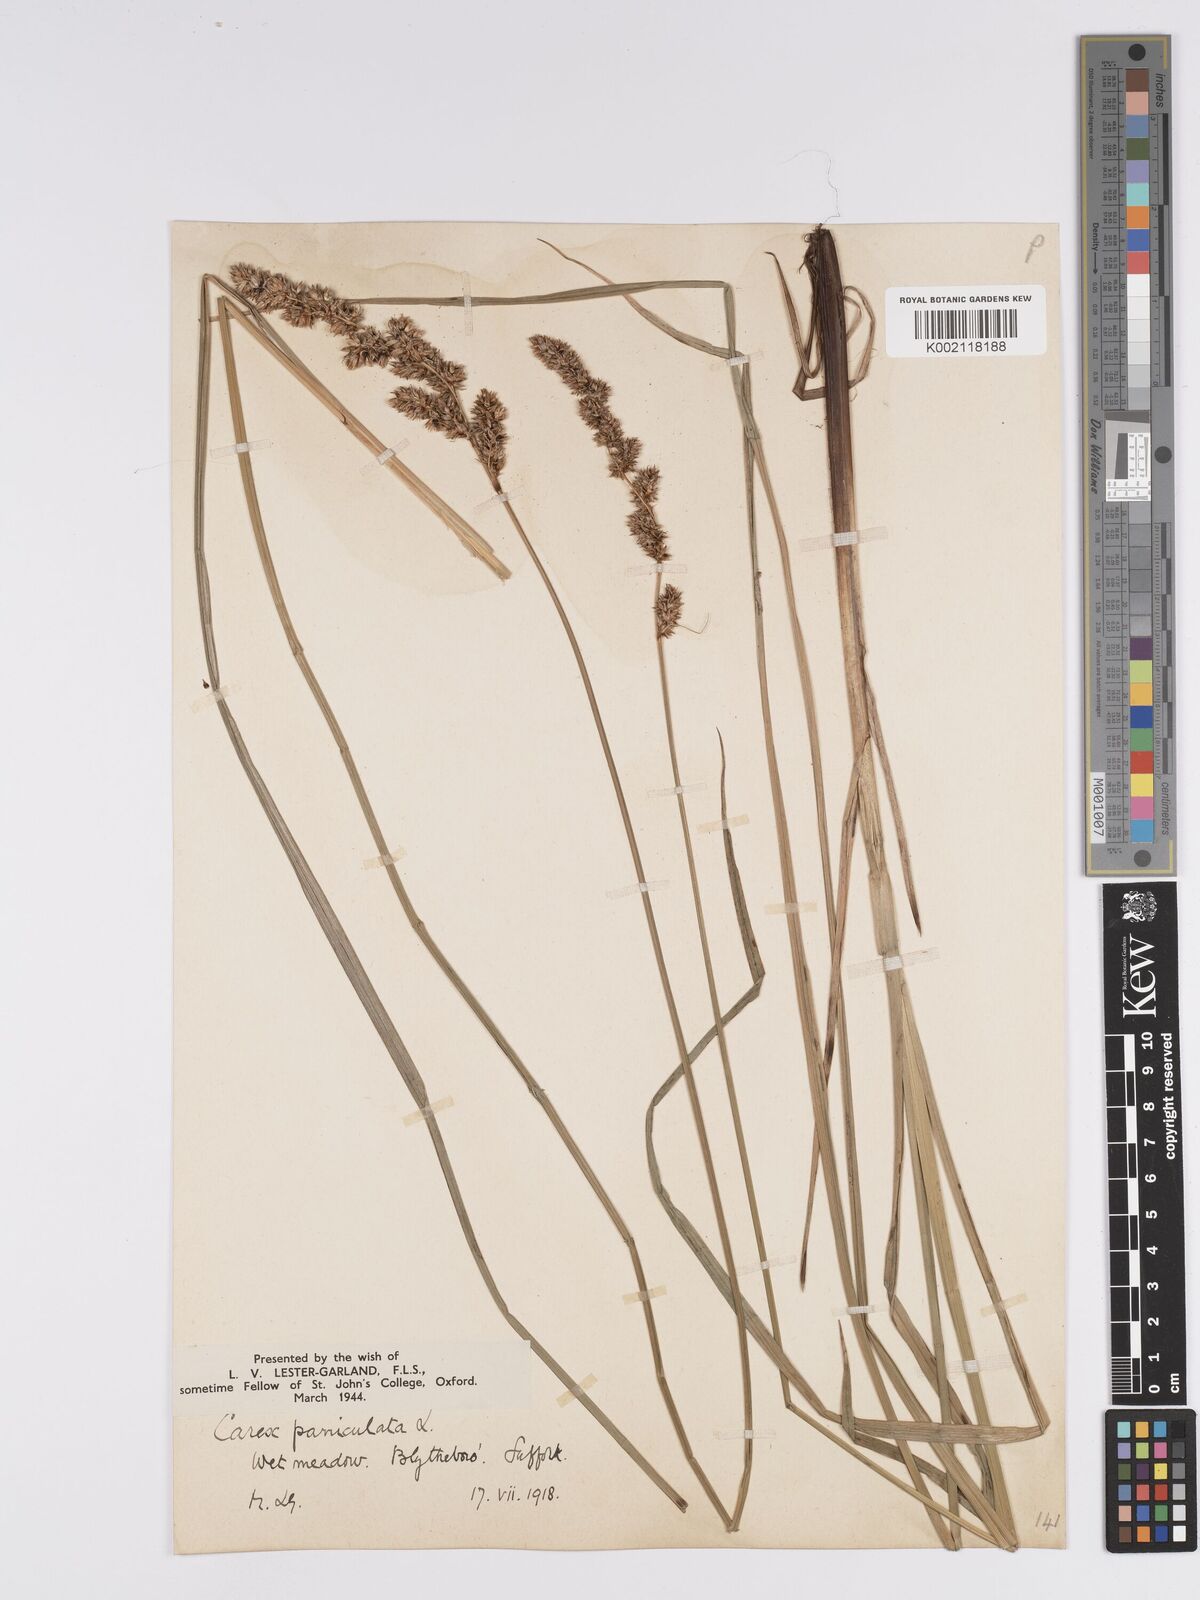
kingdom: Plantae
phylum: Tracheophyta
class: Liliopsida
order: Poales
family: Cyperaceae
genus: Carex
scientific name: Carex paniculata
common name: Greater tussock-sedge
